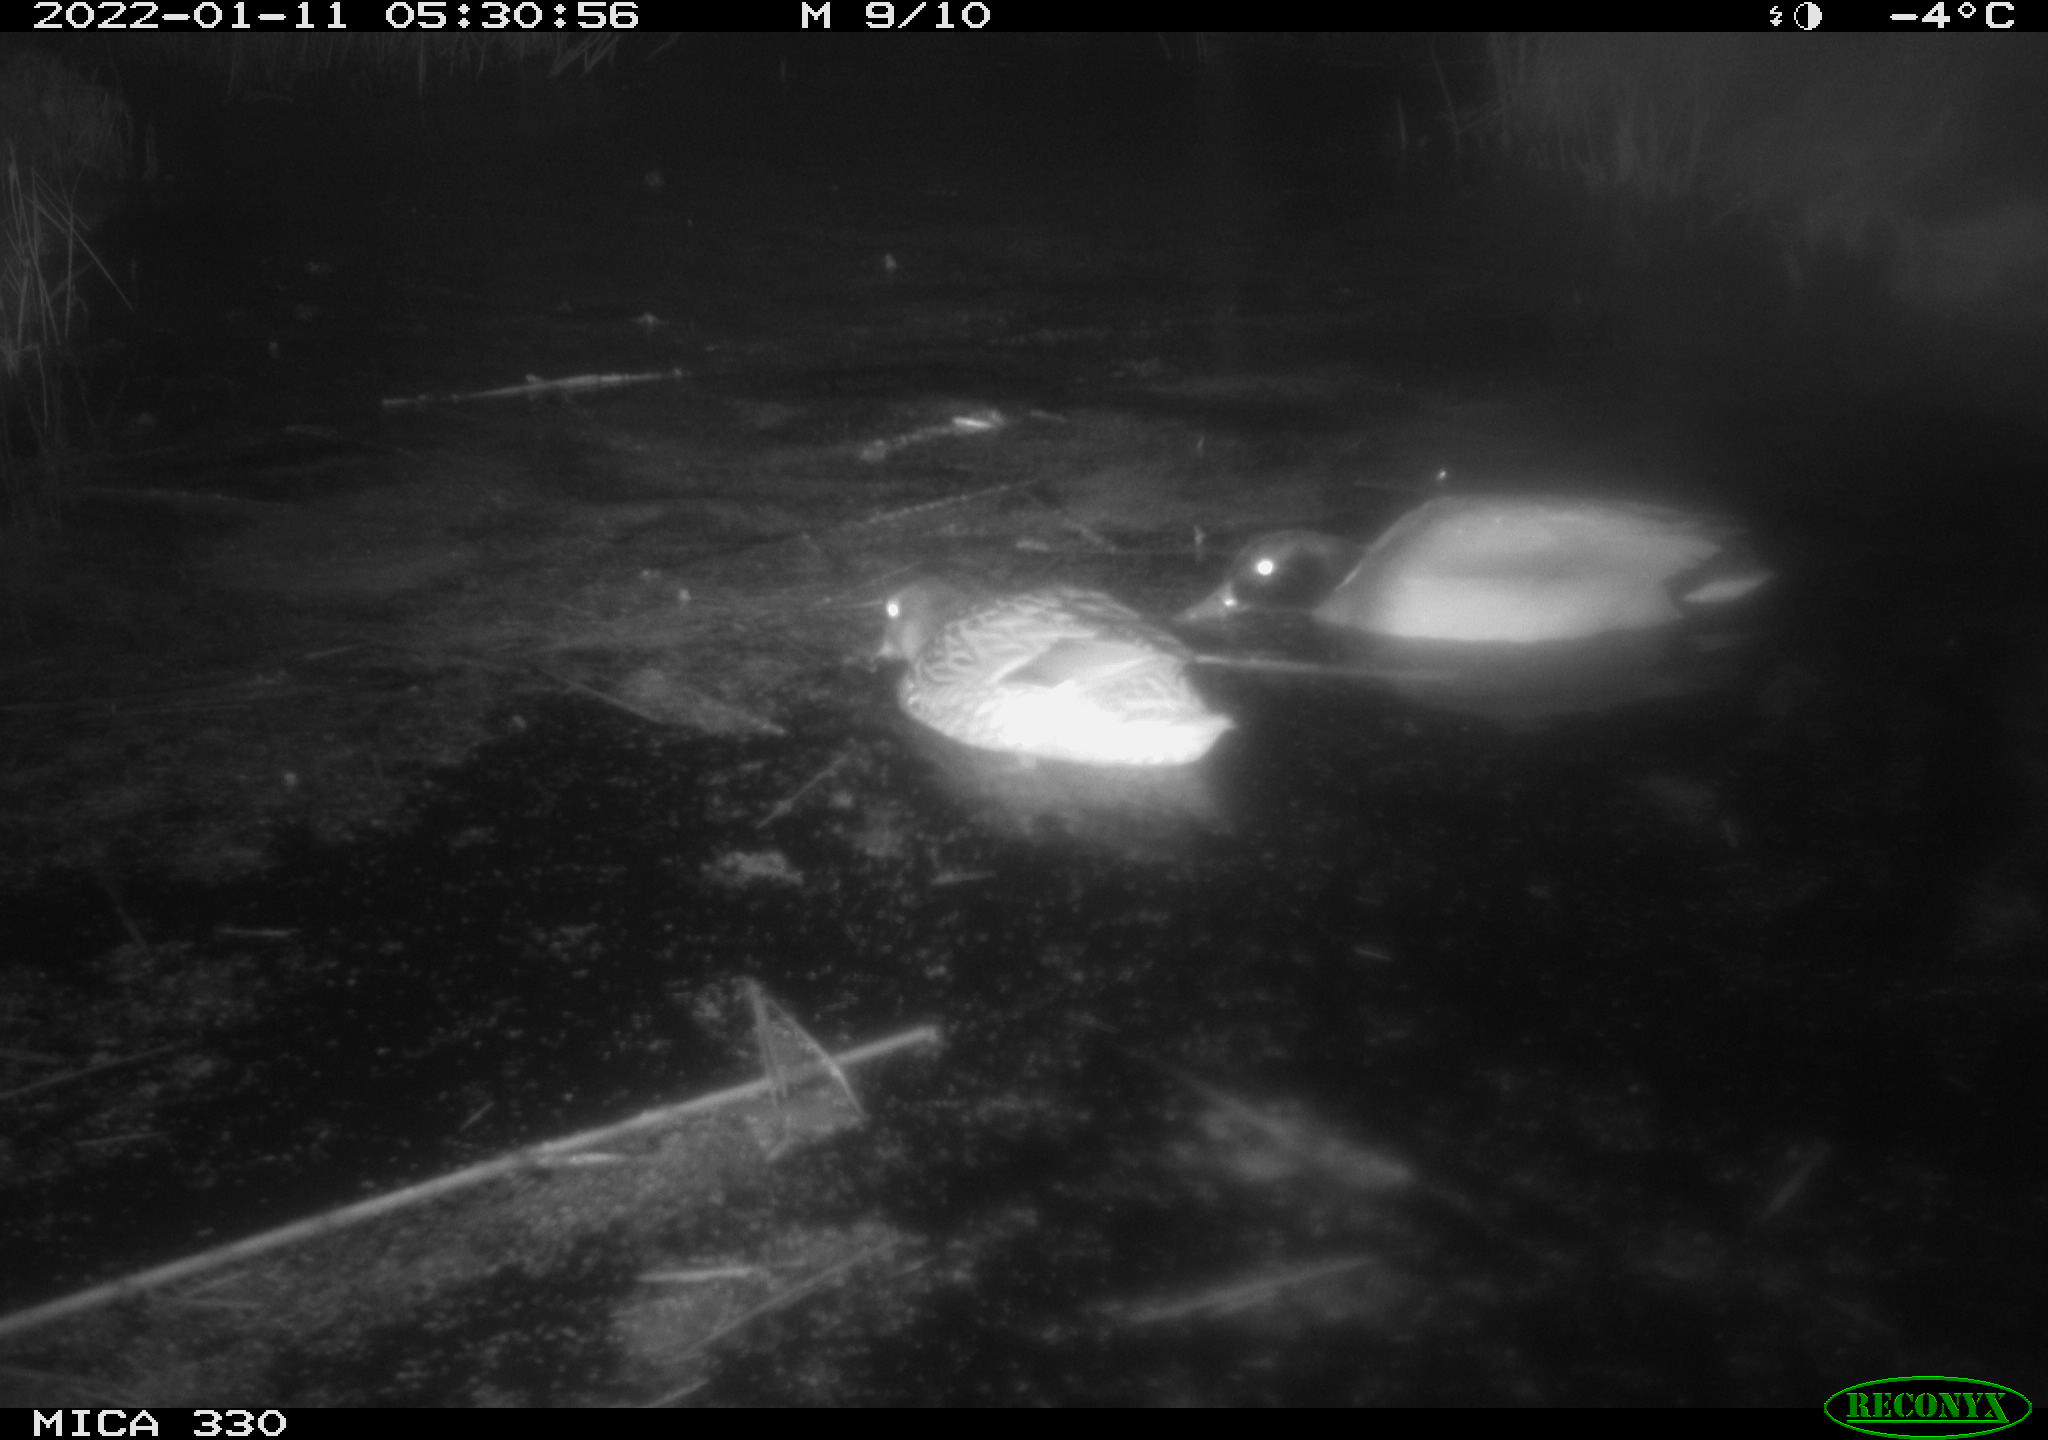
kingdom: Animalia
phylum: Chordata
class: Aves
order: Anseriformes
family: Anatidae
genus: Anas
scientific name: Anas platyrhynchos
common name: Mallard
